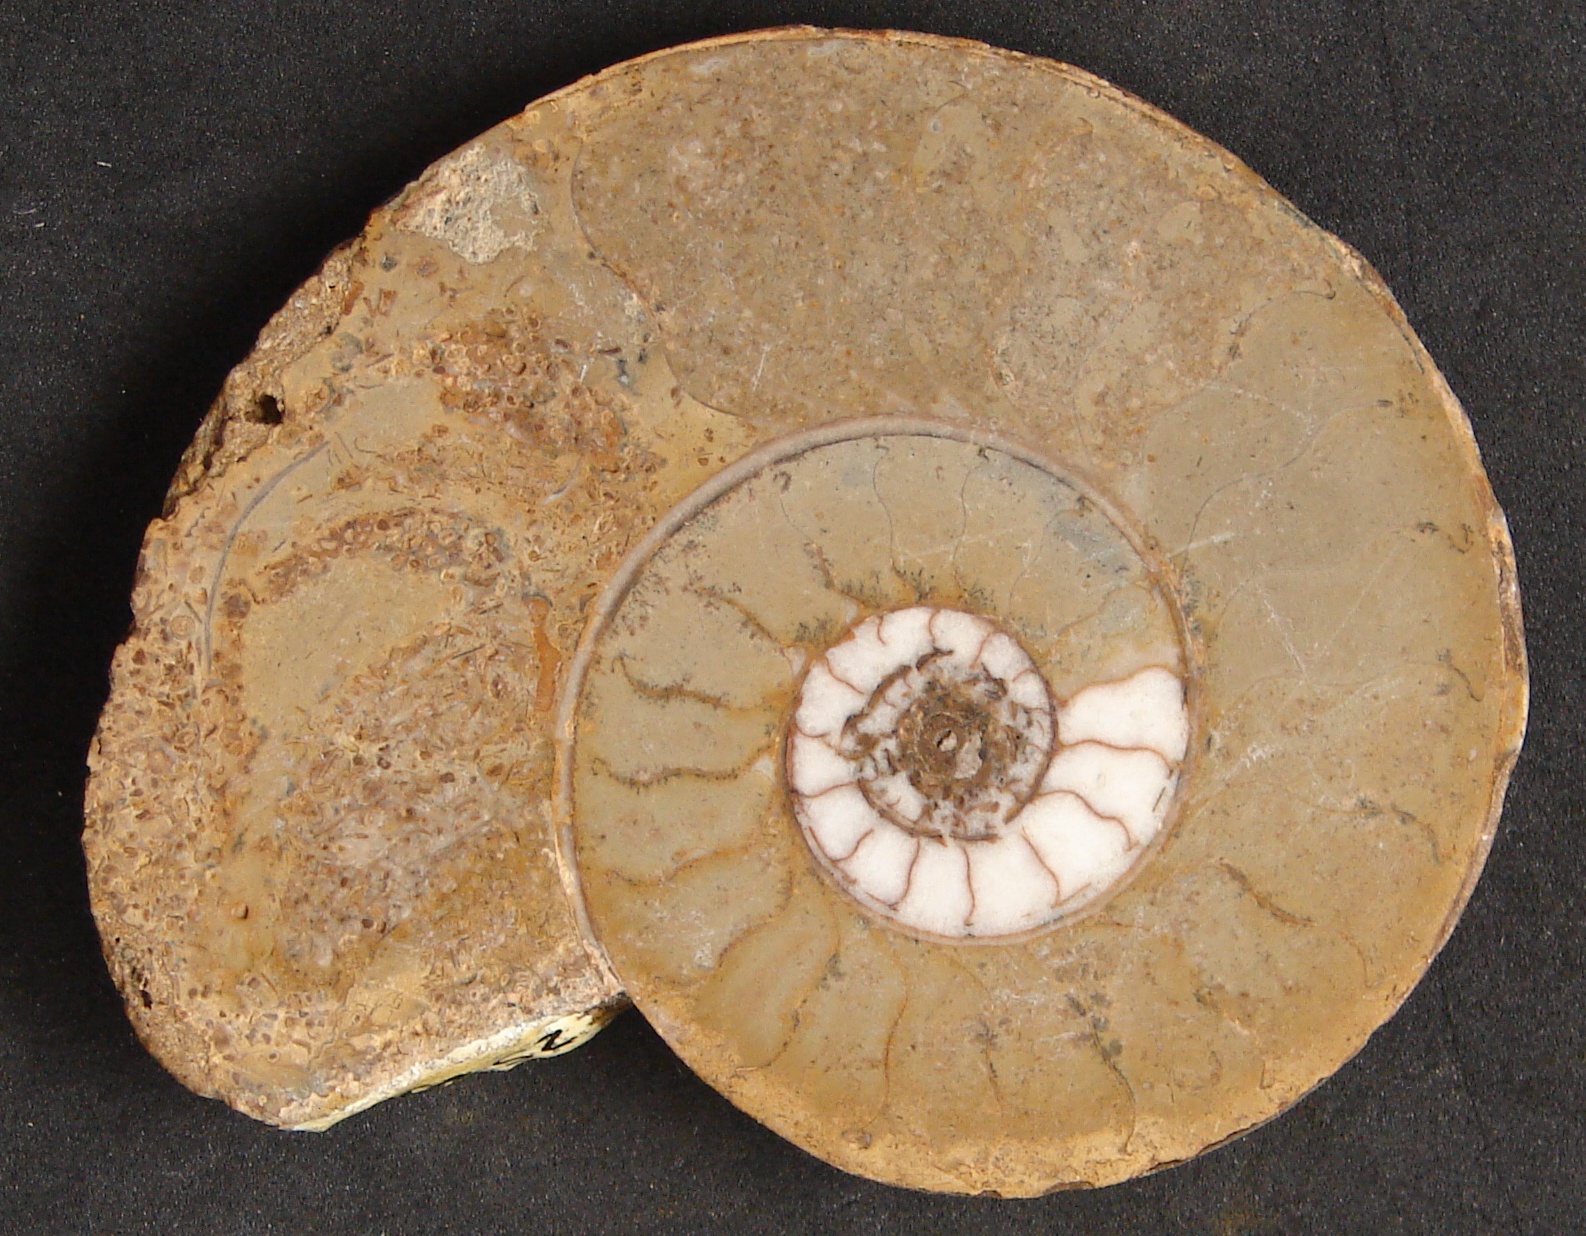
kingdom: Animalia
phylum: Mollusca
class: Cephalopoda
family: Graphoceratidae
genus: Hyperlioceras
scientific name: Hyperlioceras
